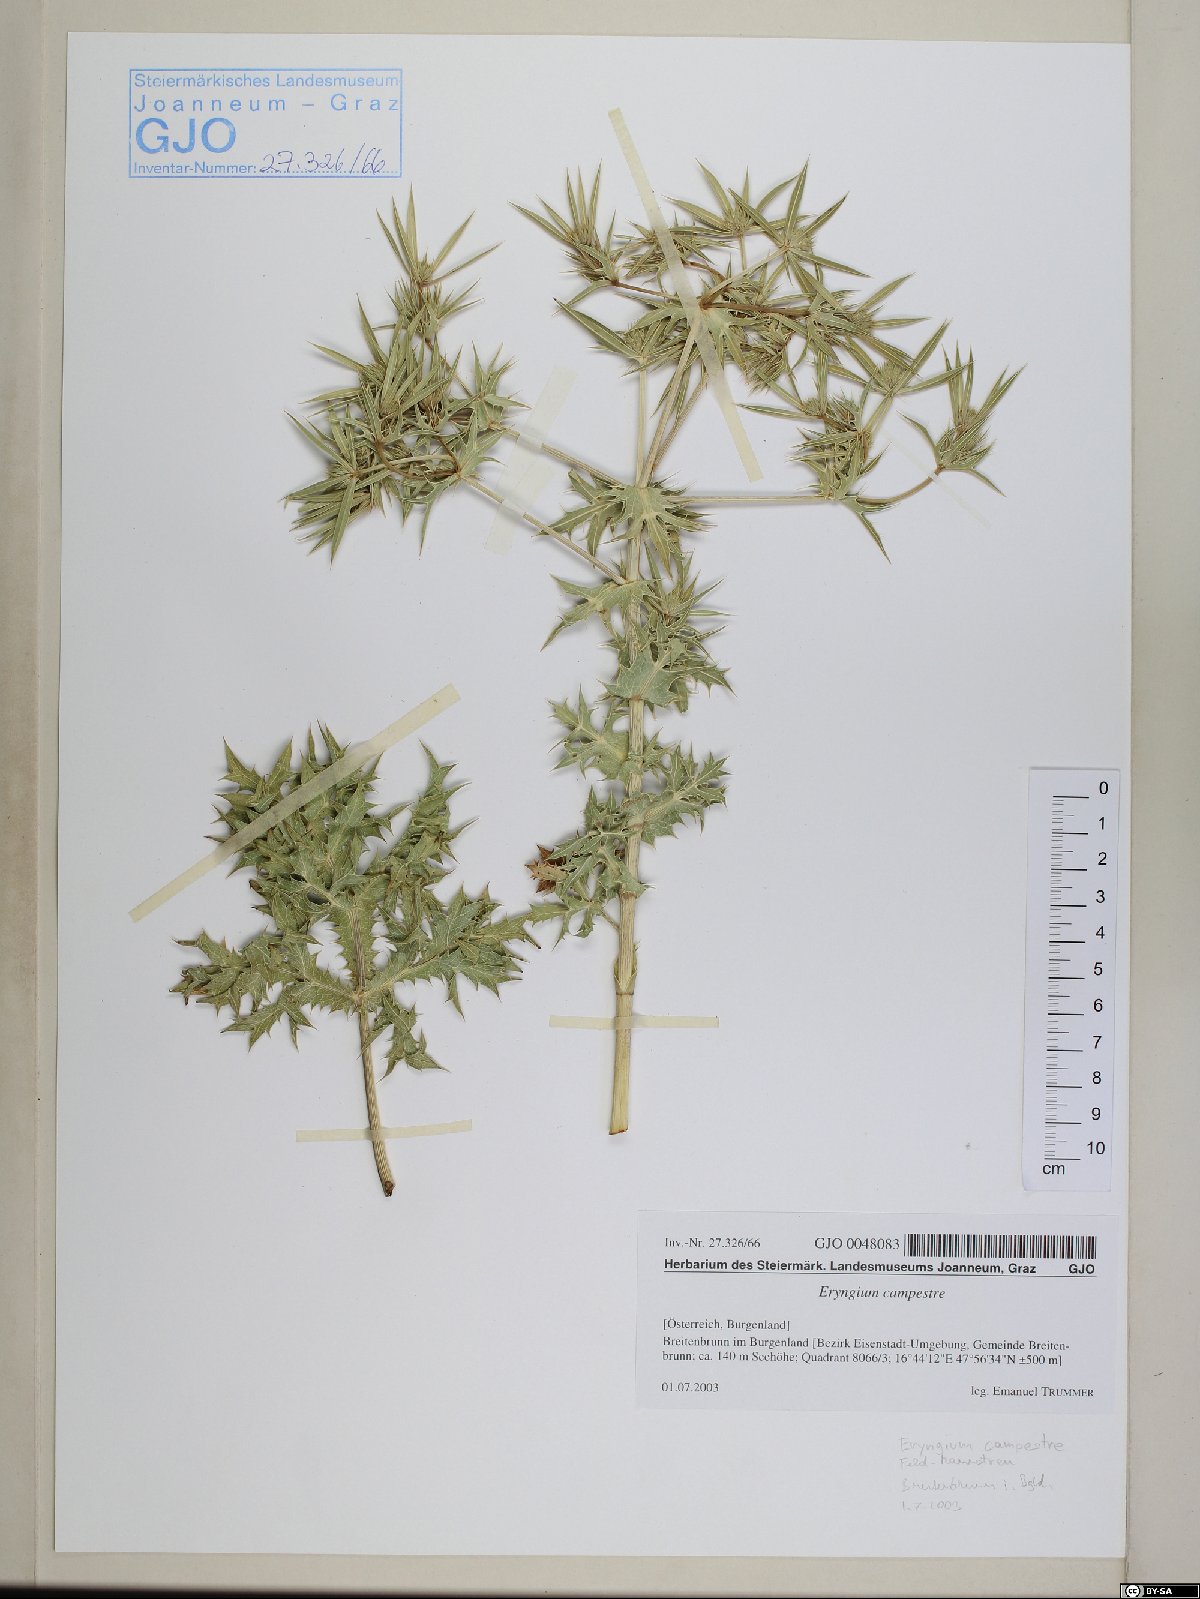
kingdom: Plantae
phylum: Tracheophyta
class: Magnoliopsida
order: Apiales
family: Apiaceae
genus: Eryngium
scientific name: Eryngium campestre
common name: Field eryngo
